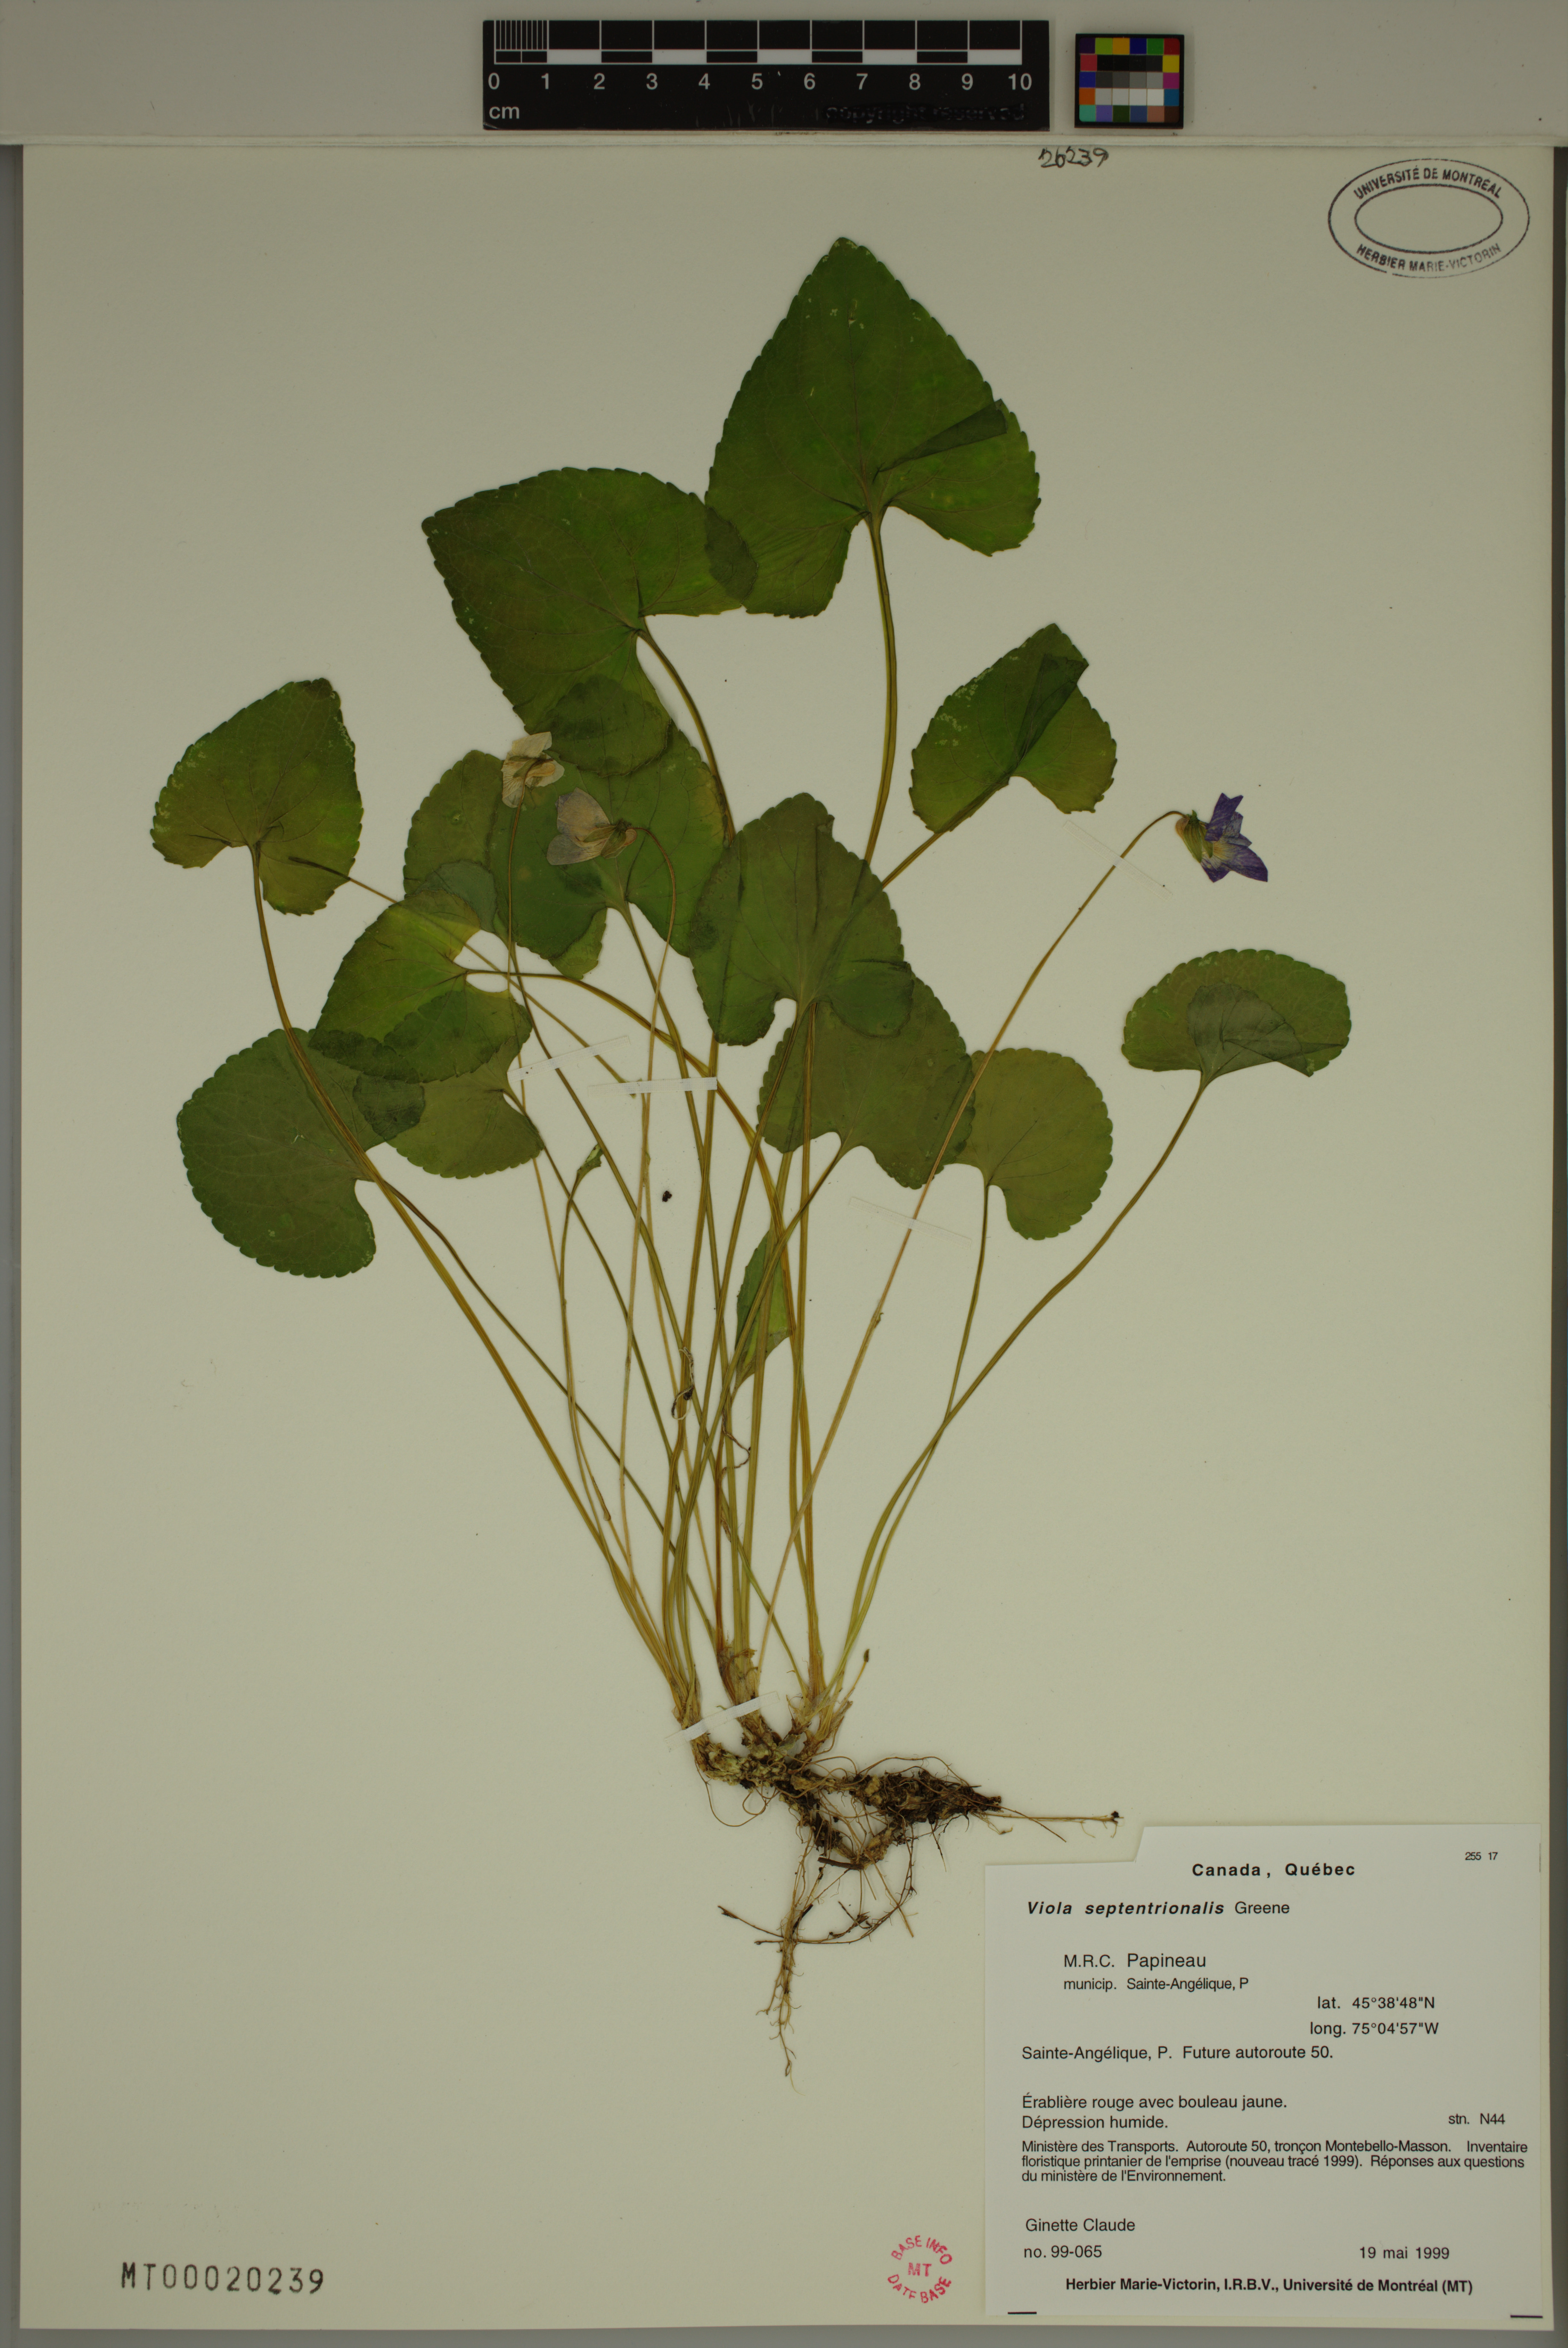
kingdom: Plantae
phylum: Tracheophyta
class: Magnoliopsida
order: Malpighiales
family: Violaceae
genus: Viola
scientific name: Viola sororia
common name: Dooryard violet
